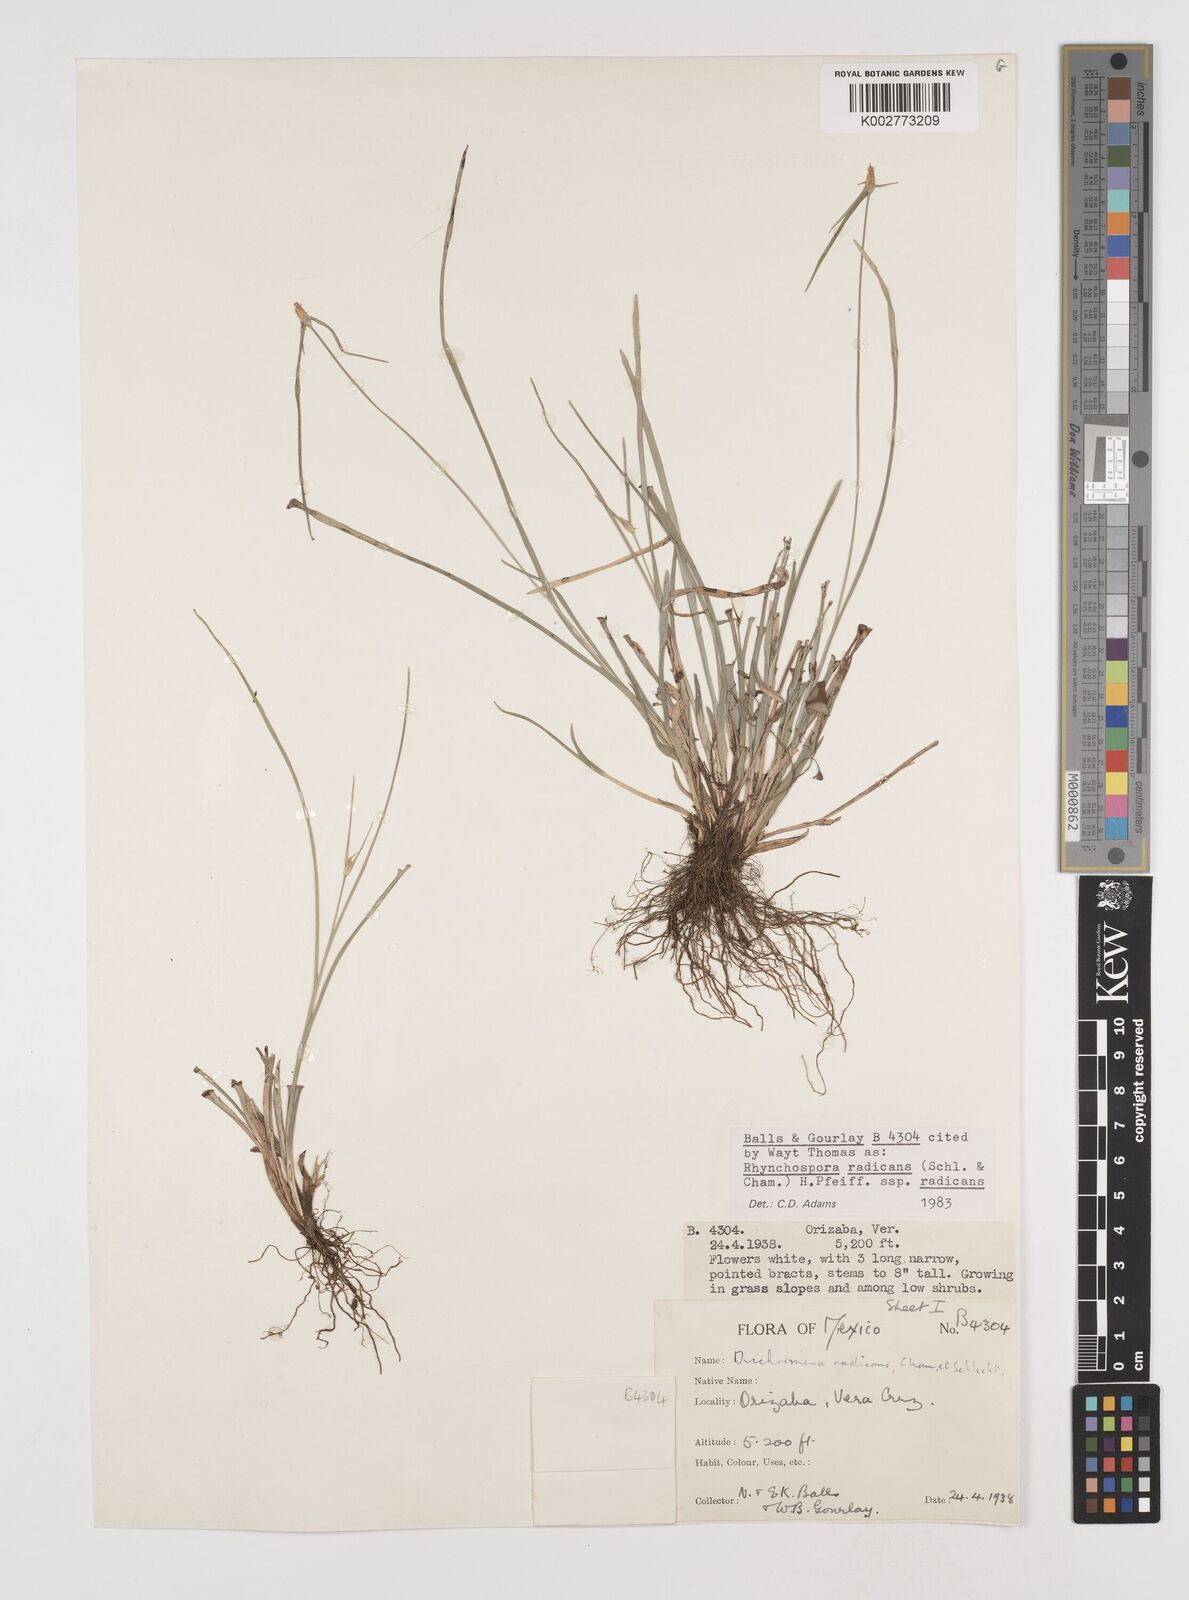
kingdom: Plantae
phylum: Tracheophyta
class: Liliopsida
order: Poales
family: Cyperaceae
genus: Rhynchospora
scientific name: Rhynchospora radicans
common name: Tropical whitetop
